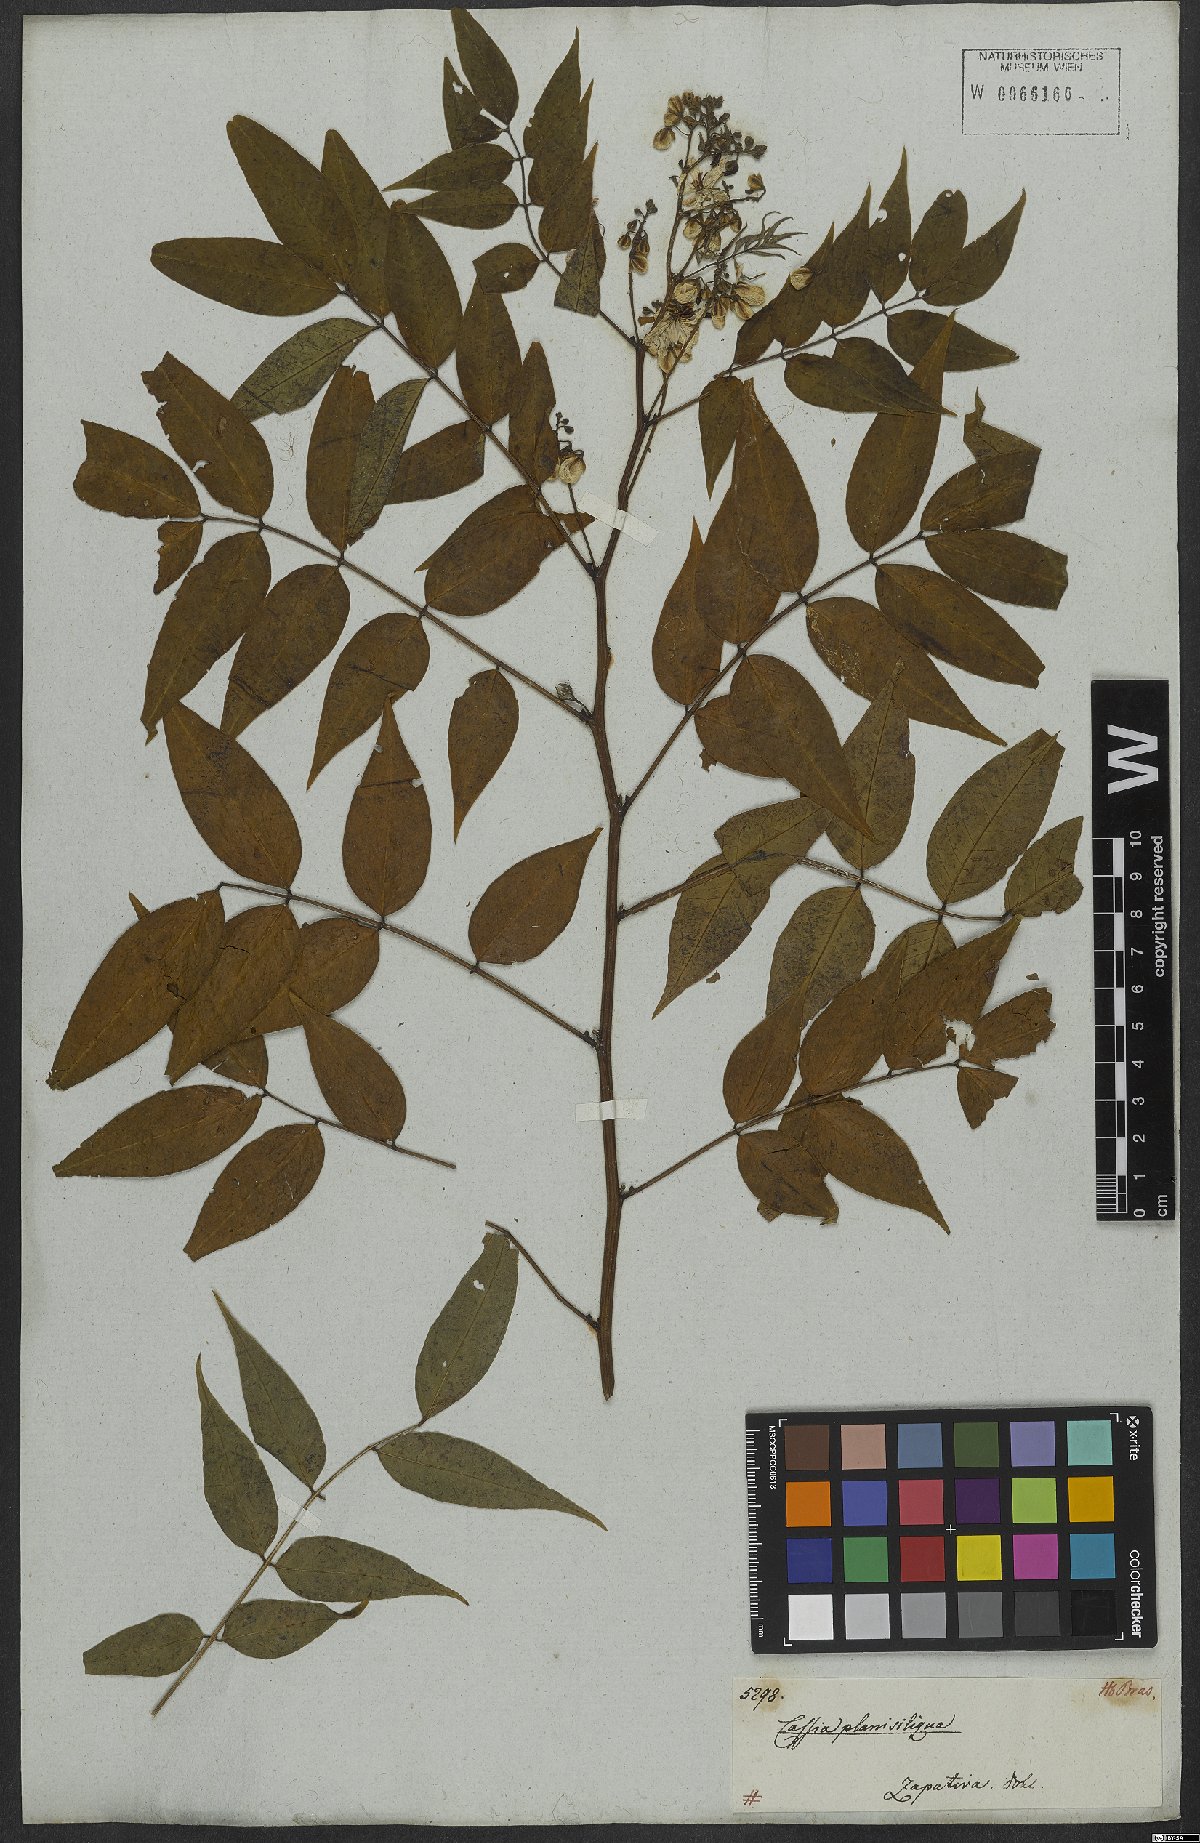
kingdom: Plantae
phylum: Tracheophyta
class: Magnoliopsida
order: Fabales
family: Fabaceae
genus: Senna
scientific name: Senna occidentalis
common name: Septicweed
